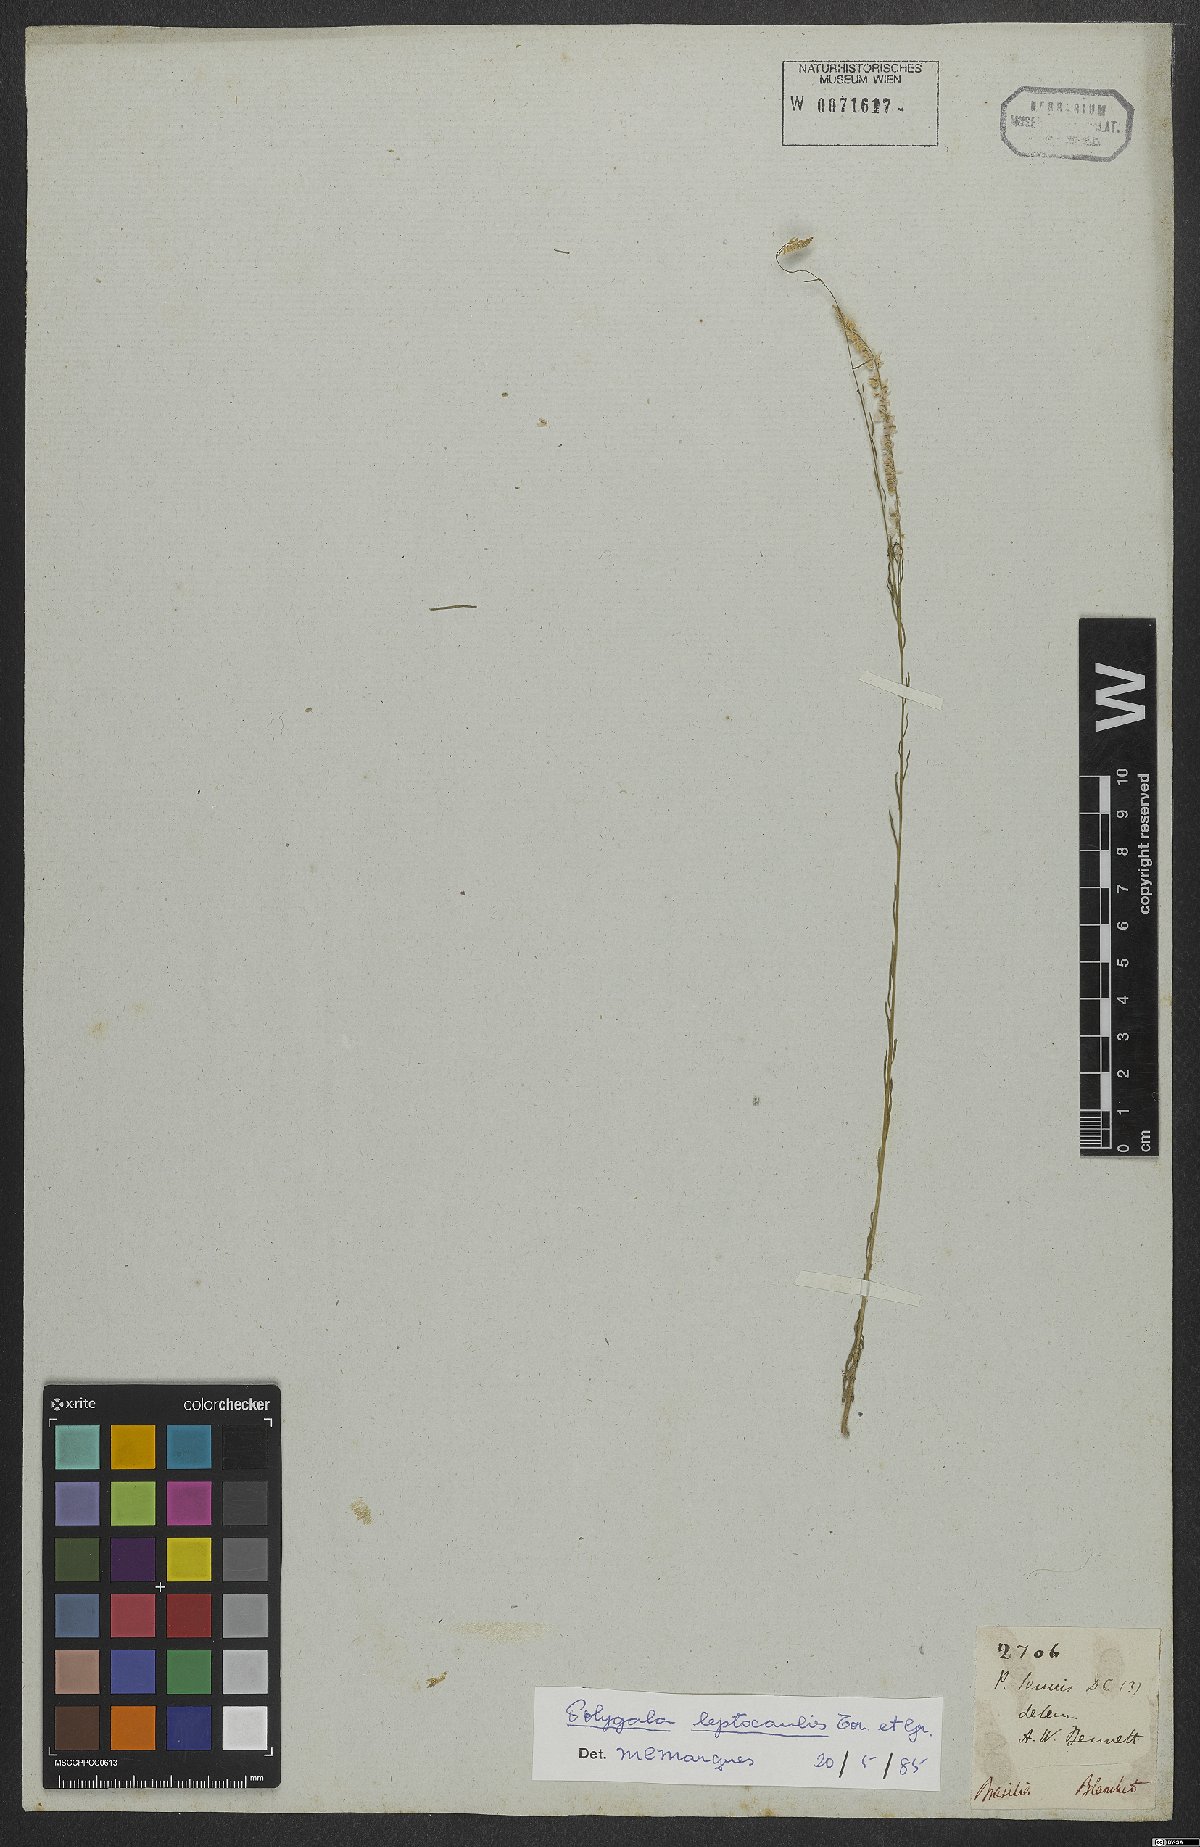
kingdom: Plantae
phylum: Tracheophyta
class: Magnoliopsida
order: Fabales
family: Polygalaceae
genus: Polygala
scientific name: Polygala tenella
